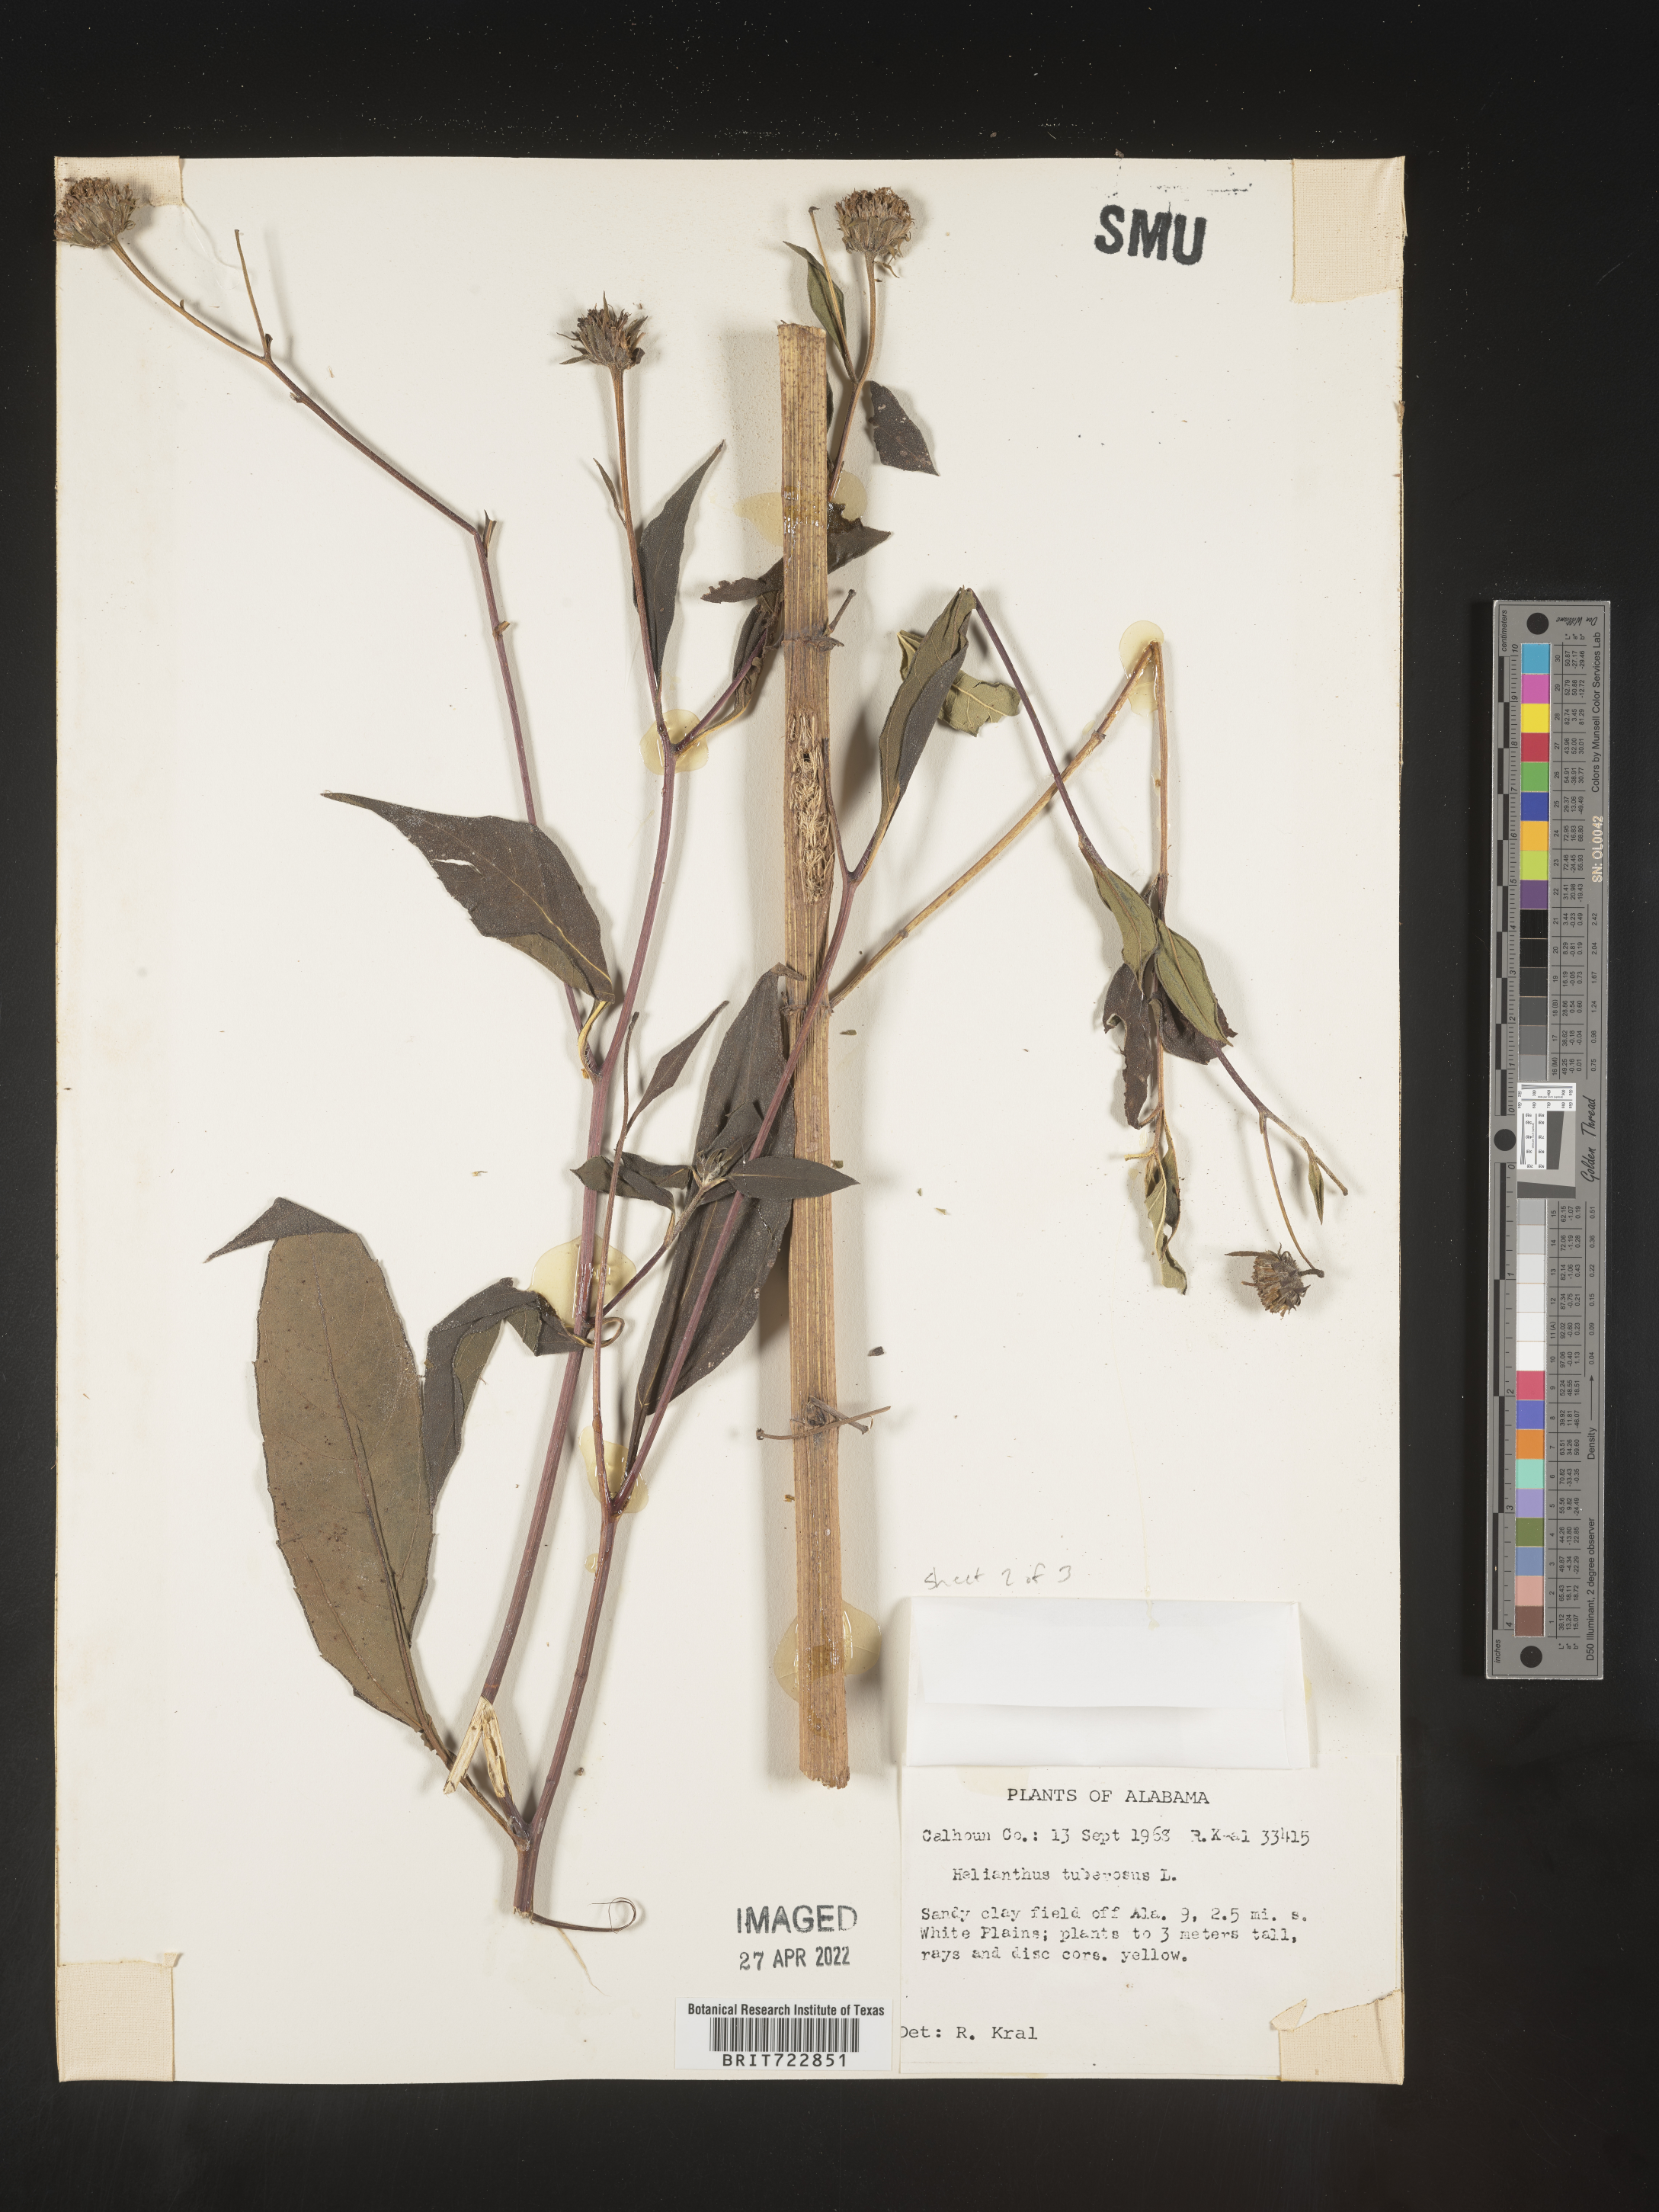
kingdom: Plantae
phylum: Tracheophyta
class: Magnoliopsida
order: Asterales
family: Asteraceae
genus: Helianthus
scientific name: Helianthus tuberosus
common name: Jerusalem artichoke
